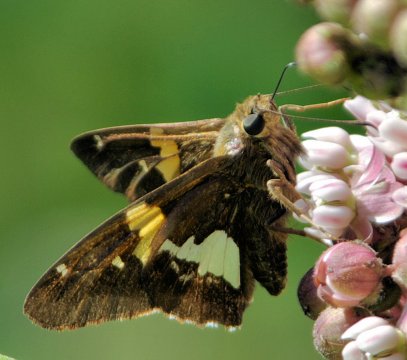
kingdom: Animalia
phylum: Arthropoda
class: Insecta
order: Lepidoptera
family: Hesperiidae
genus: Epargyreus
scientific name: Epargyreus clarus
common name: Silver-spotted Skipper
